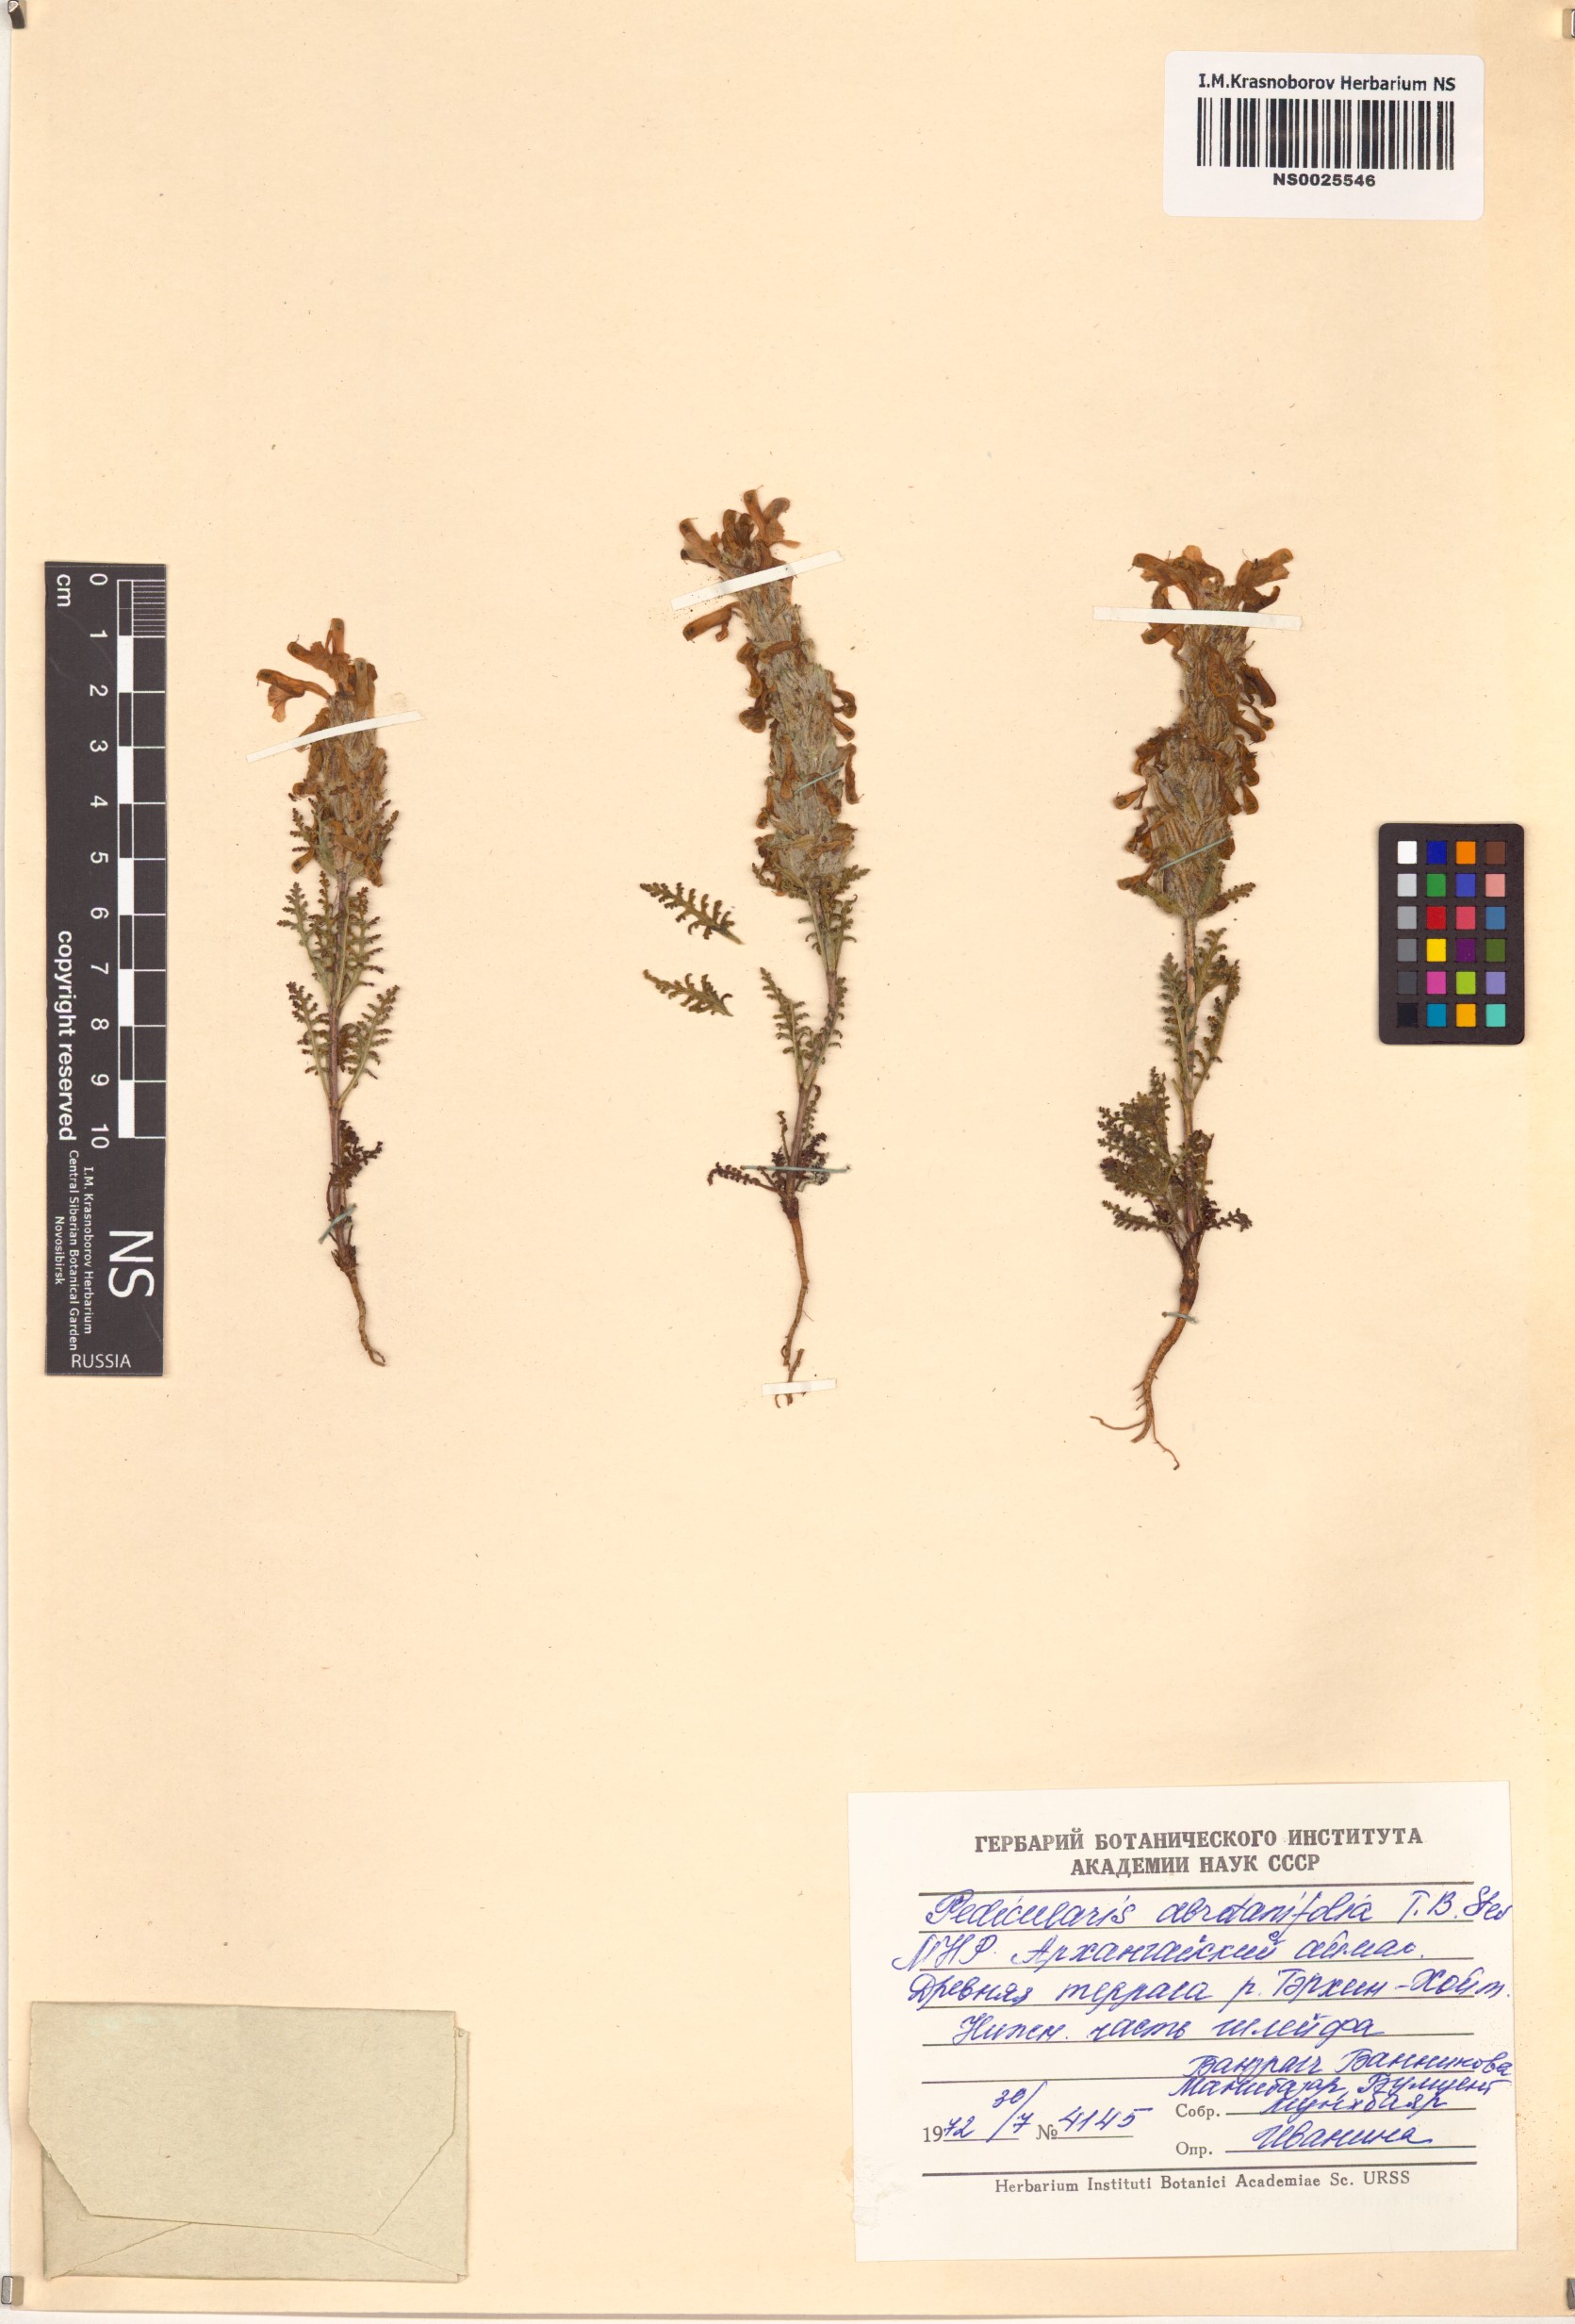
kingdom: Plantae
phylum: Tracheophyta
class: Magnoliopsida
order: Lamiales
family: Orobanchaceae
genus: Pedicularis
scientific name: Pedicularis abrotanifolia
